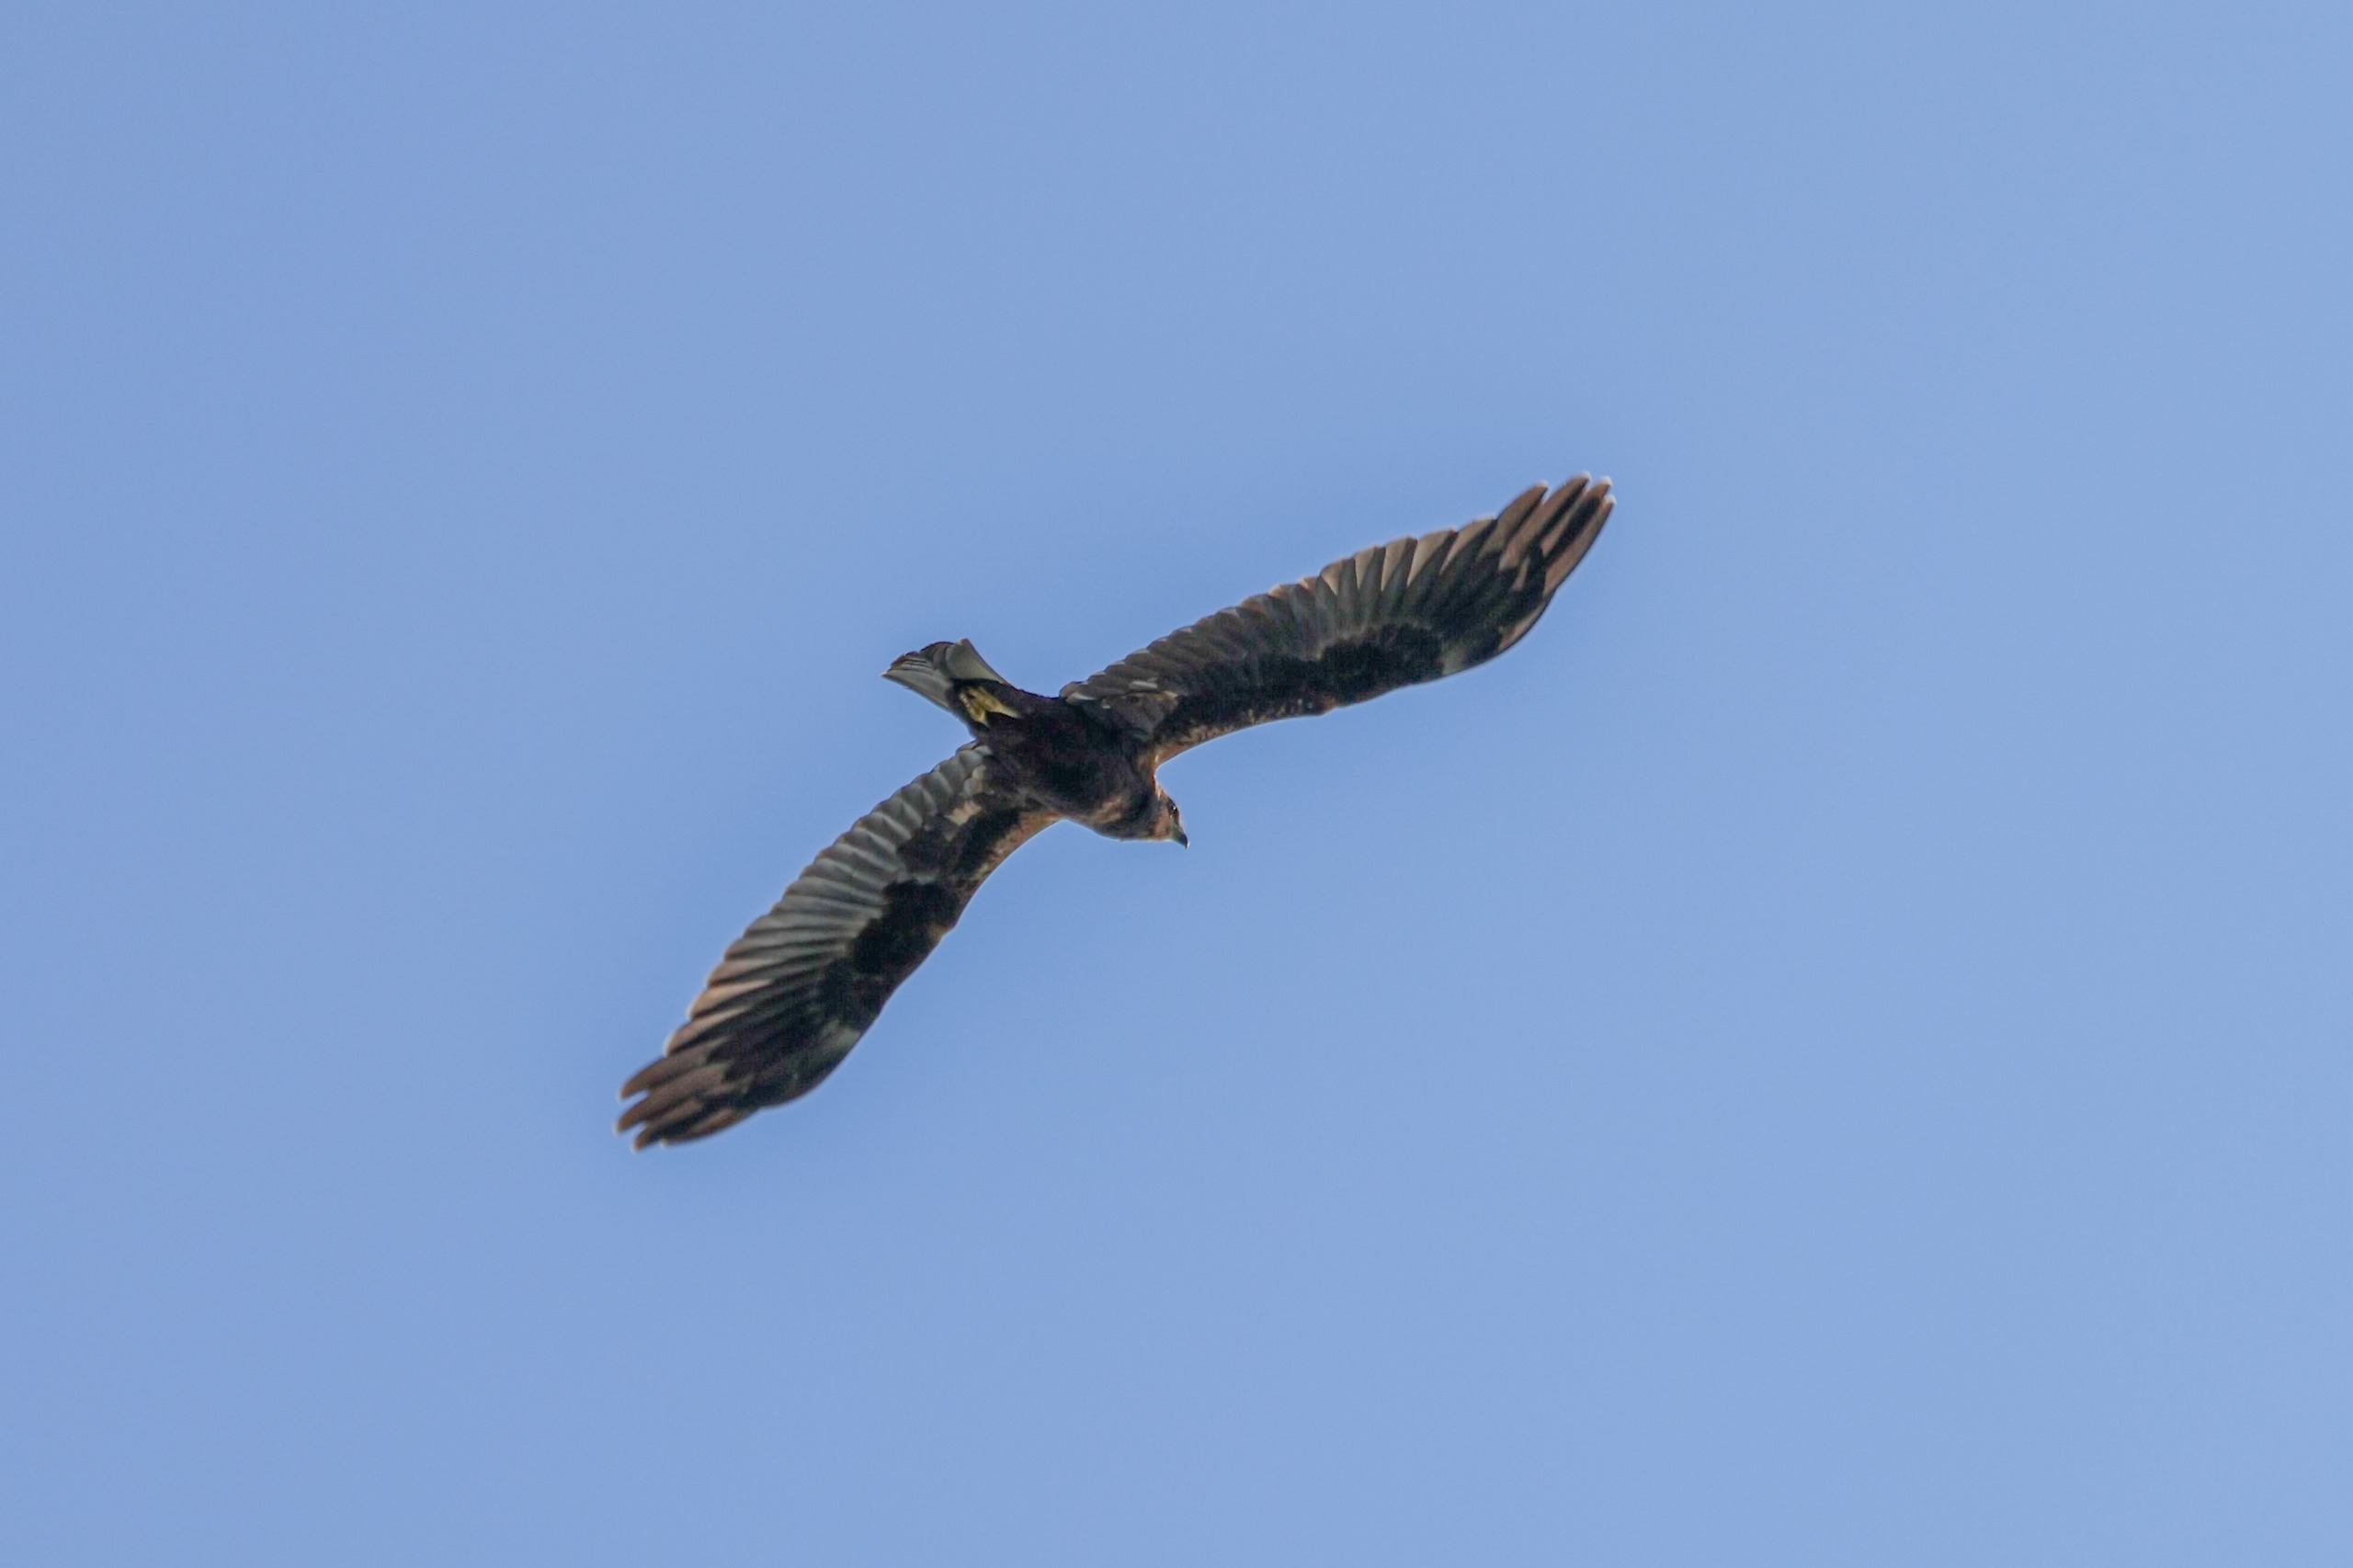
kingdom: Animalia
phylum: Chordata
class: Aves
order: Accipitriformes
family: Accipitridae
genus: Circus
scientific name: Circus aeruginosus
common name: Rørhøg
